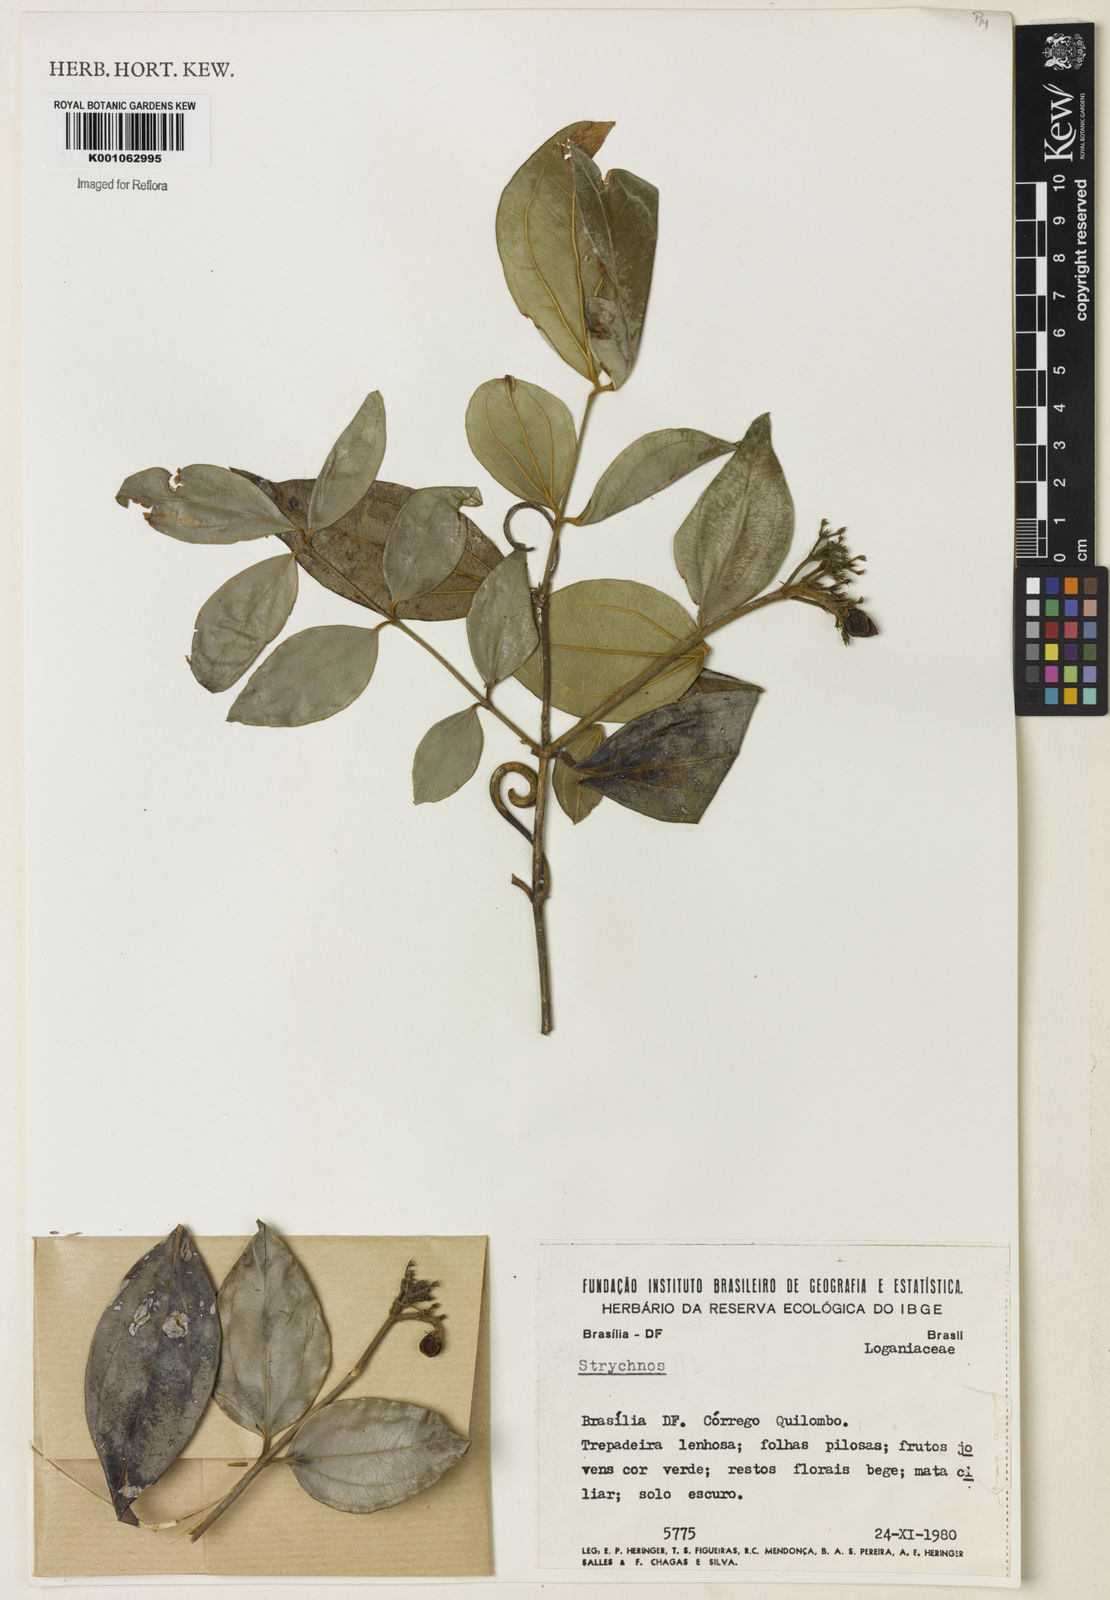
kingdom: Plantae
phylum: Tracheophyta
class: Magnoliopsida
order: Gentianales
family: Loganiaceae
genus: Strychnos
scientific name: Strychnos
